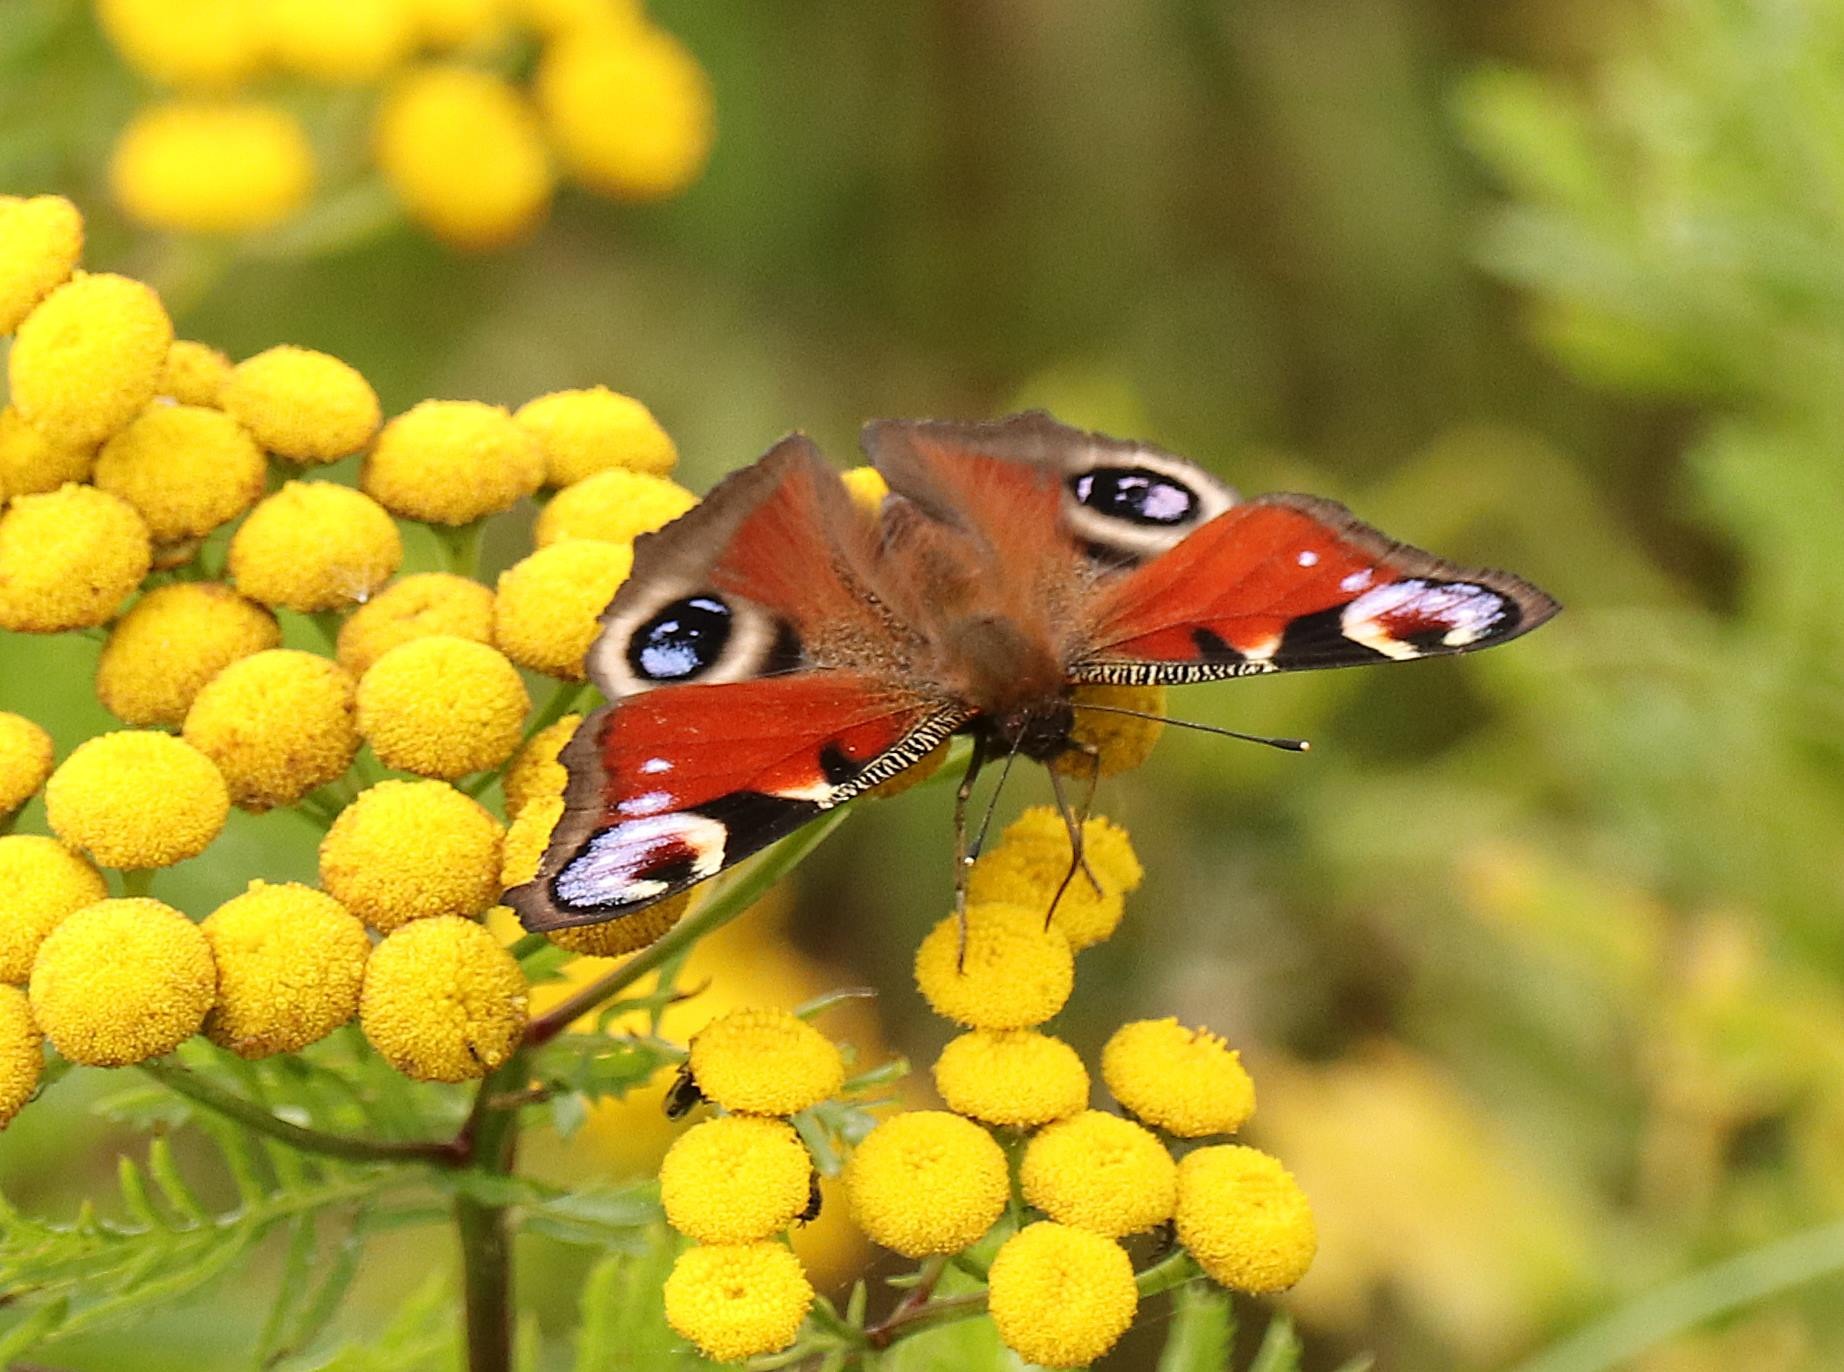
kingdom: Animalia
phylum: Arthropoda
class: Insecta
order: Lepidoptera
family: Nymphalidae
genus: Aglais
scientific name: Aglais io
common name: Dagpåfugleøje
